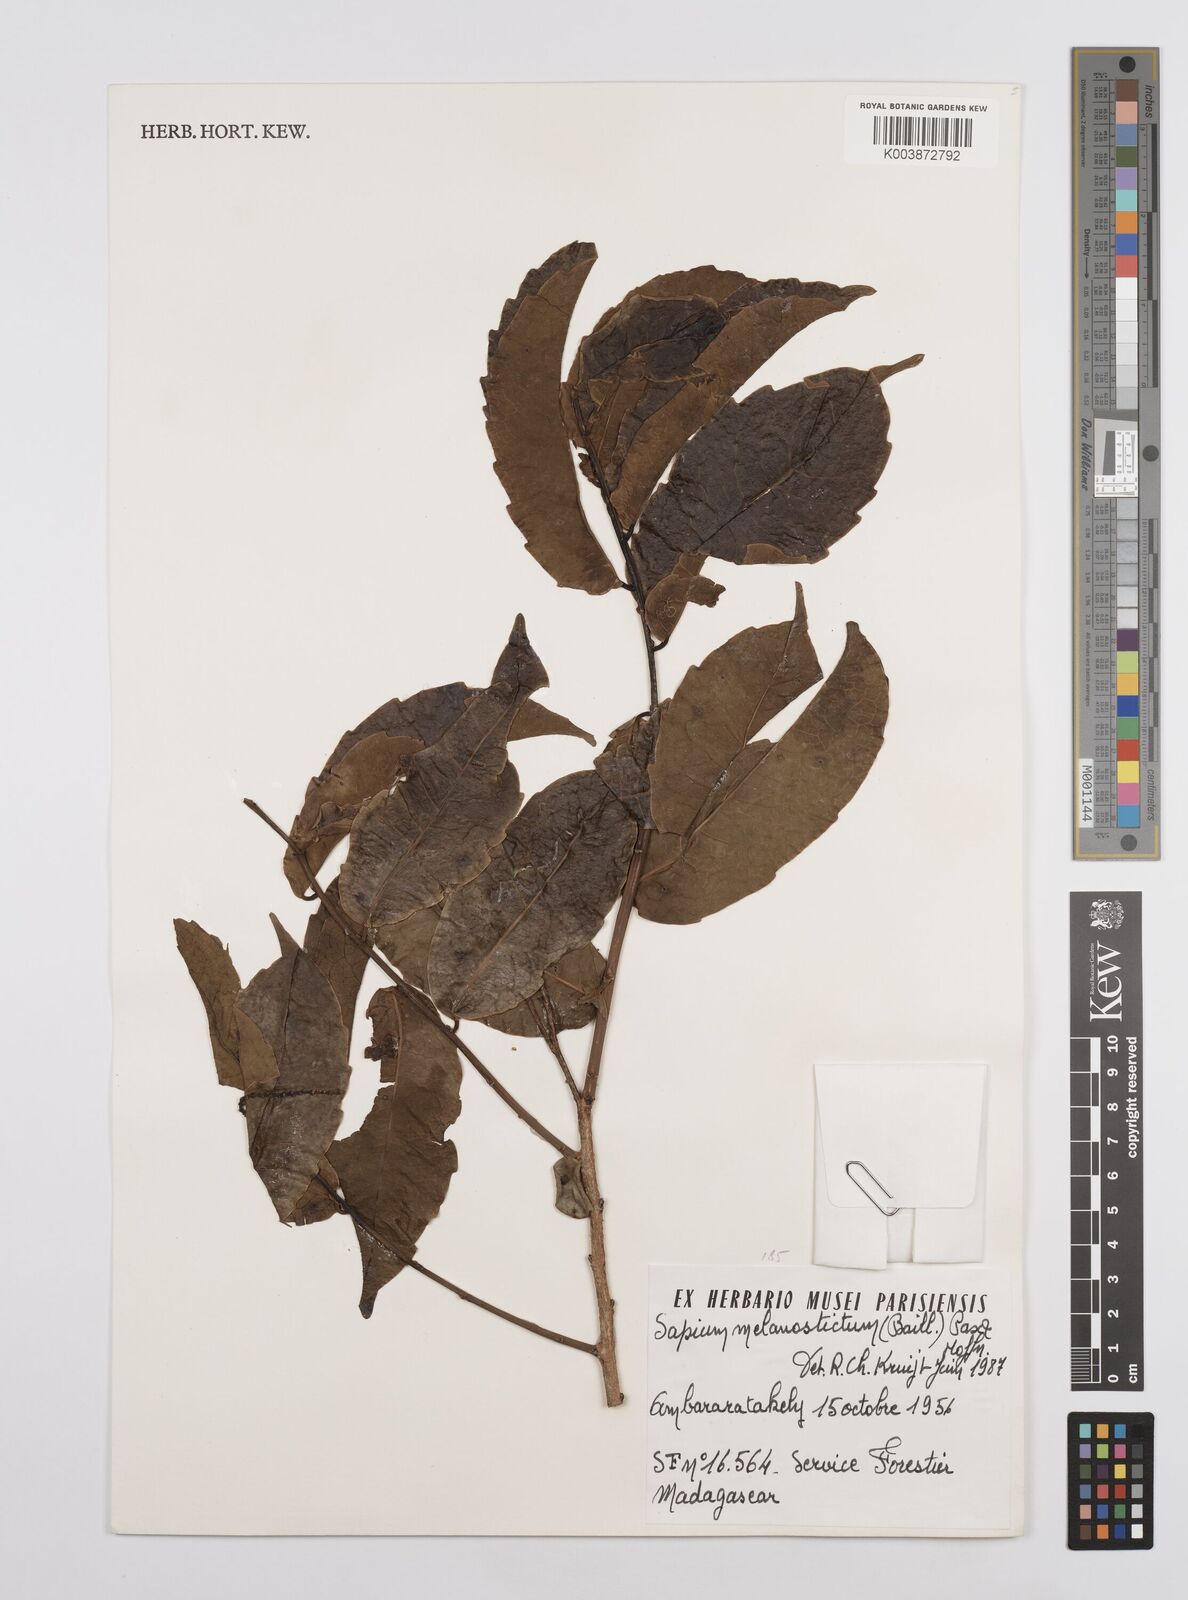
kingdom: Plantae
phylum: Tracheophyta
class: Magnoliopsida
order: Malpighiales
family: Euphorbiaceae
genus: Sclerocroton
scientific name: Sclerocroton melanostictus
